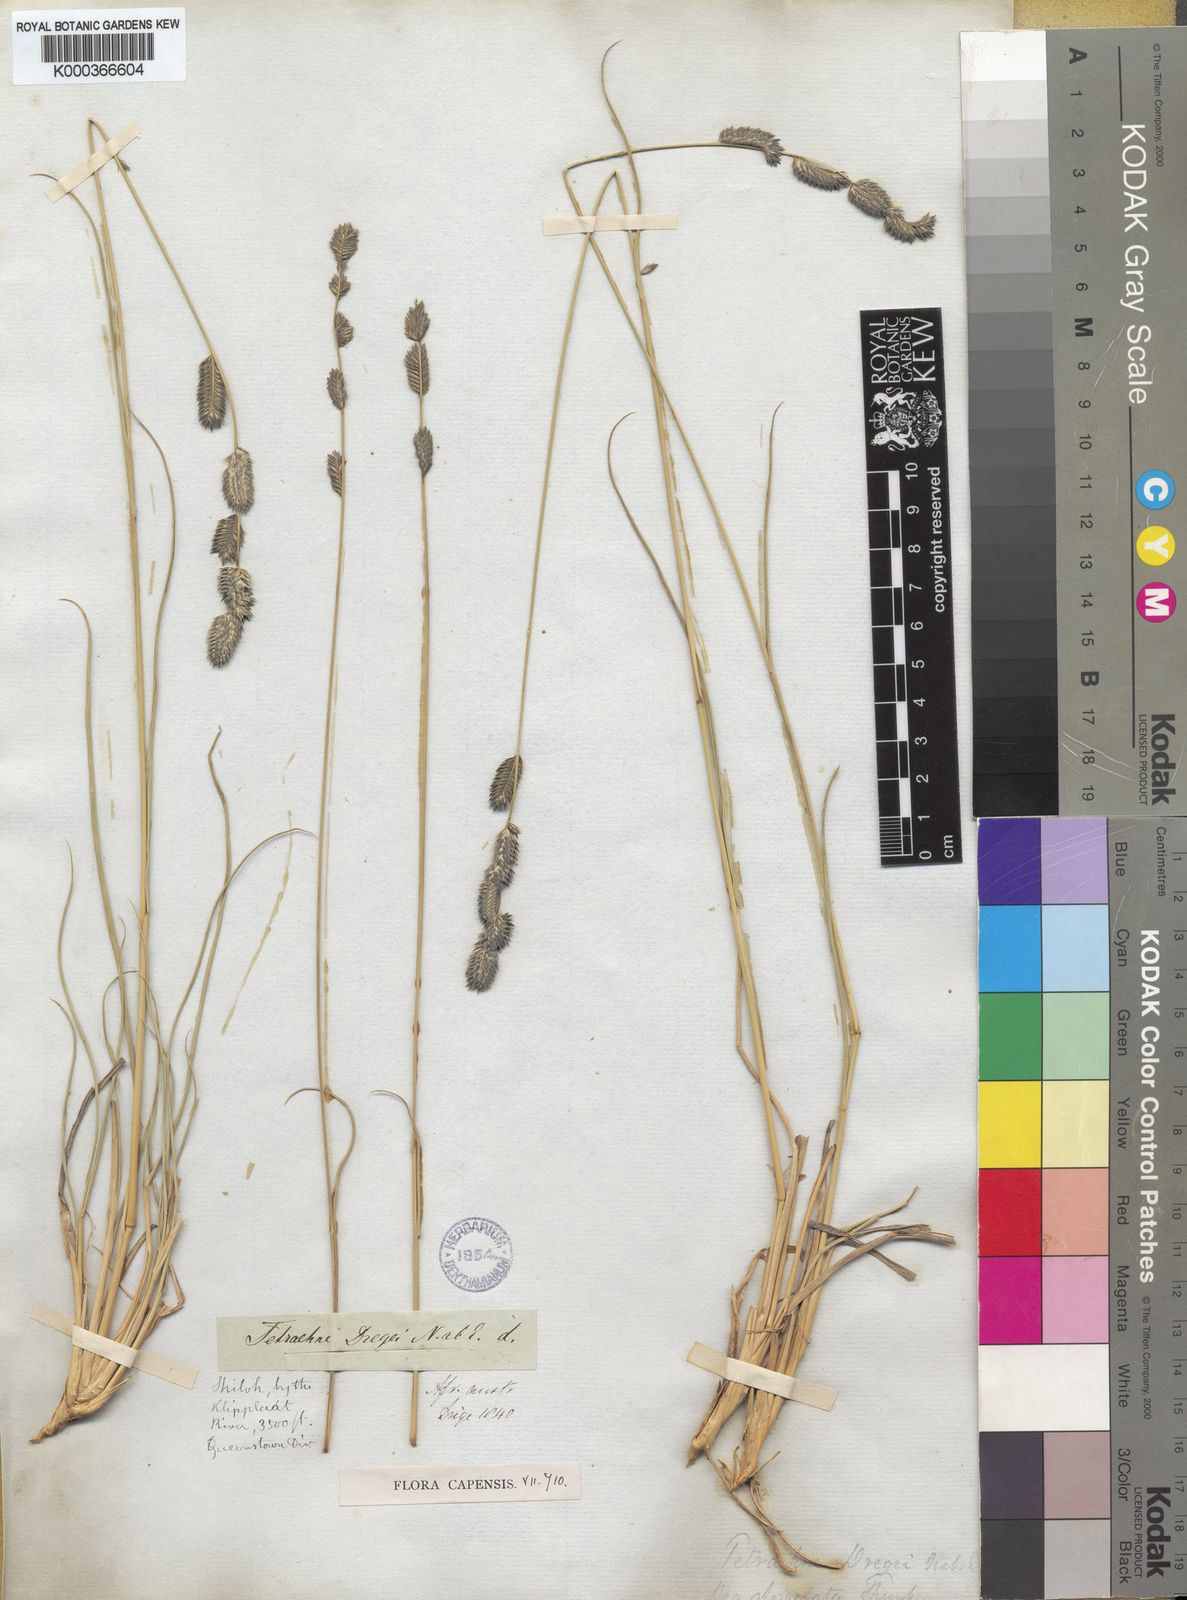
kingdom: Plantae
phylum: Tracheophyta
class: Liliopsida
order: Poales
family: Poaceae
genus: Tetrachne
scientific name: Tetrachne dregei
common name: Robies cocksfoot
